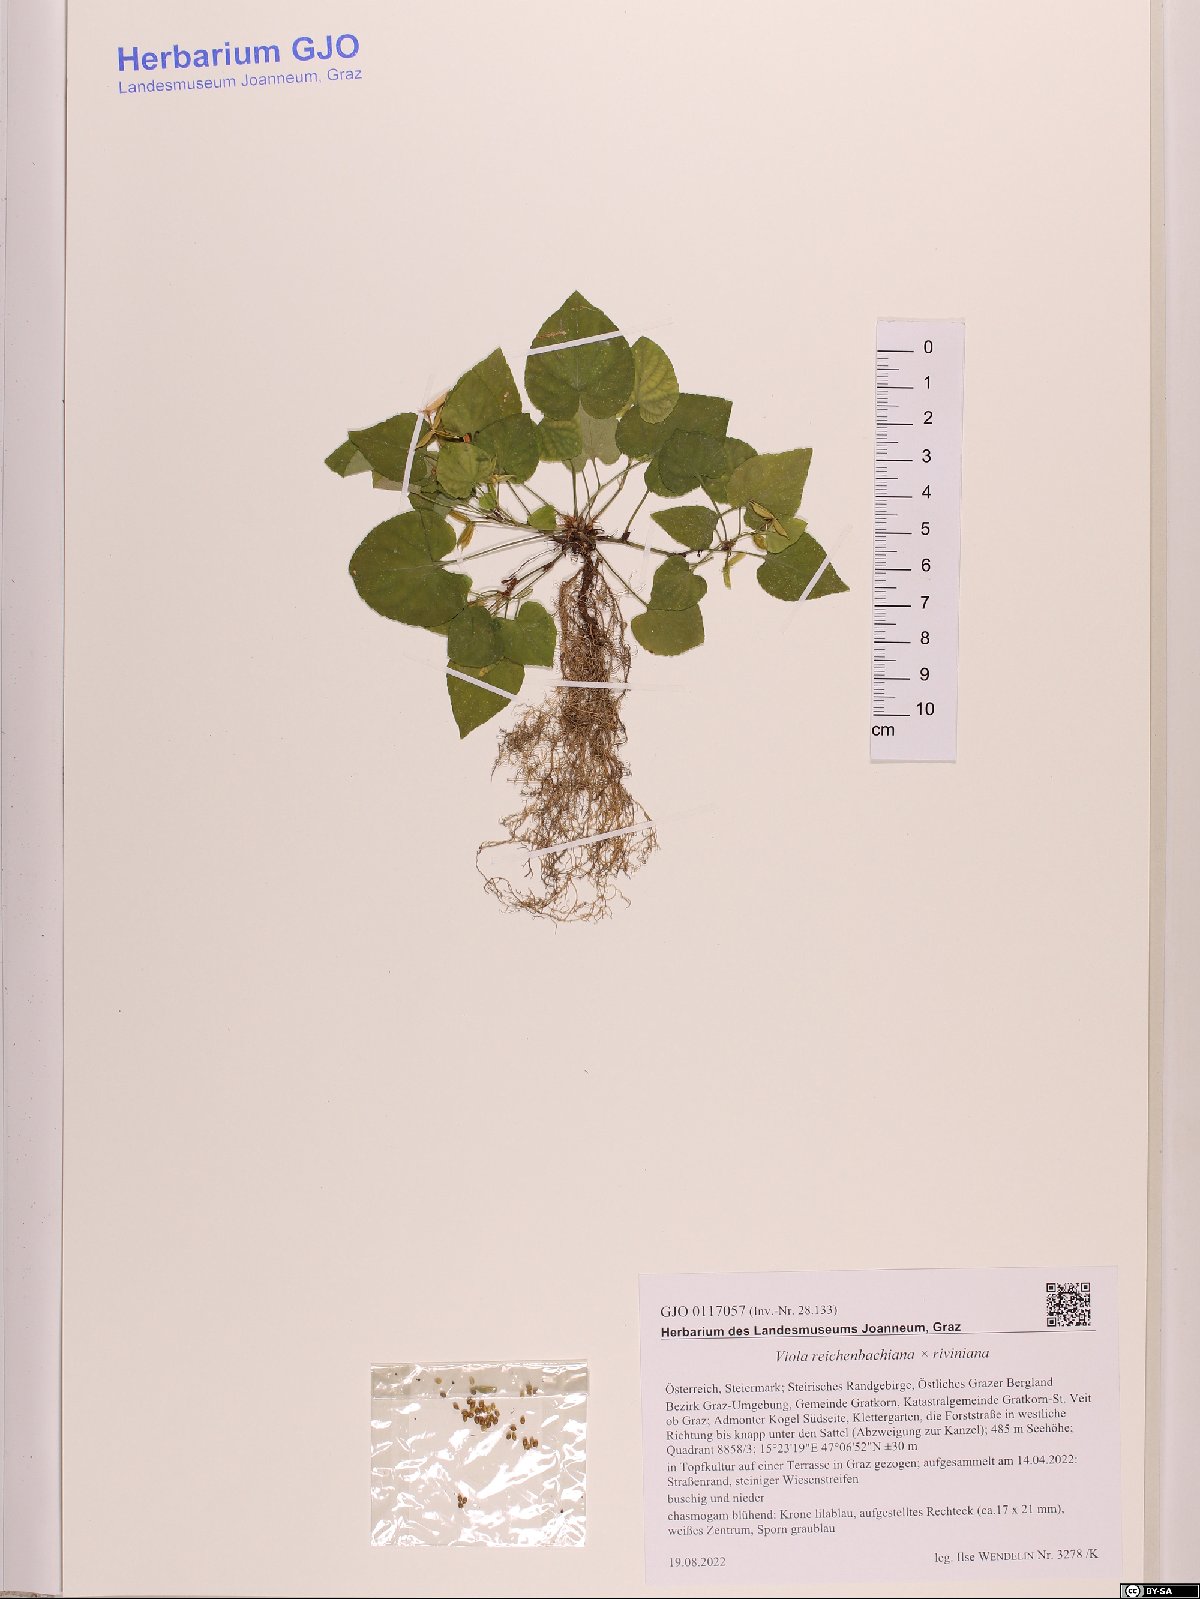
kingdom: Plantae
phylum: Tracheophyta
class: Magnoliopsida
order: Malpighiales
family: Violaceae
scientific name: Violaceae
